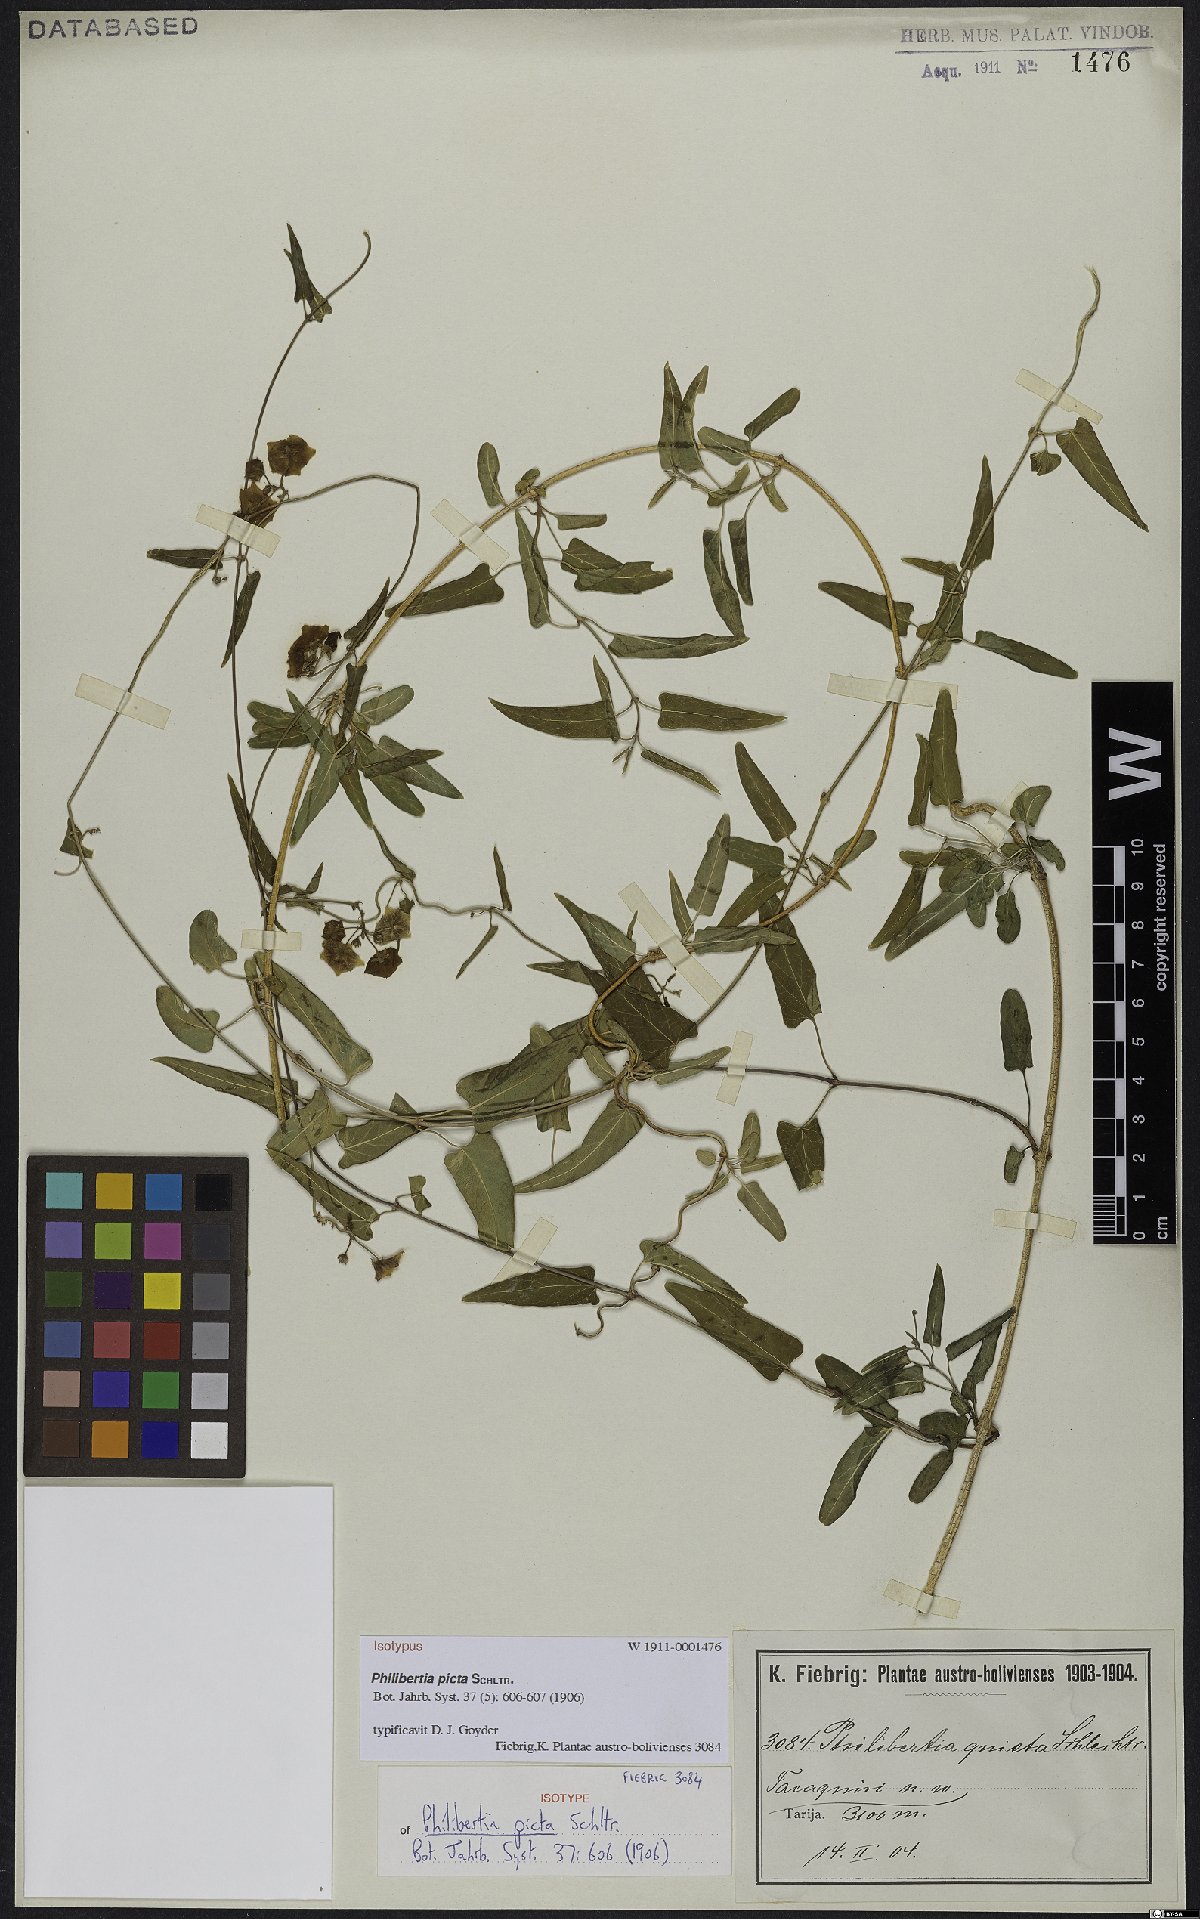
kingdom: Plantae
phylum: Tracheophyta
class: Magnoliopsida
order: Gentianales
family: Apocynaceae
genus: Philibertia
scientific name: Philibertia picta
